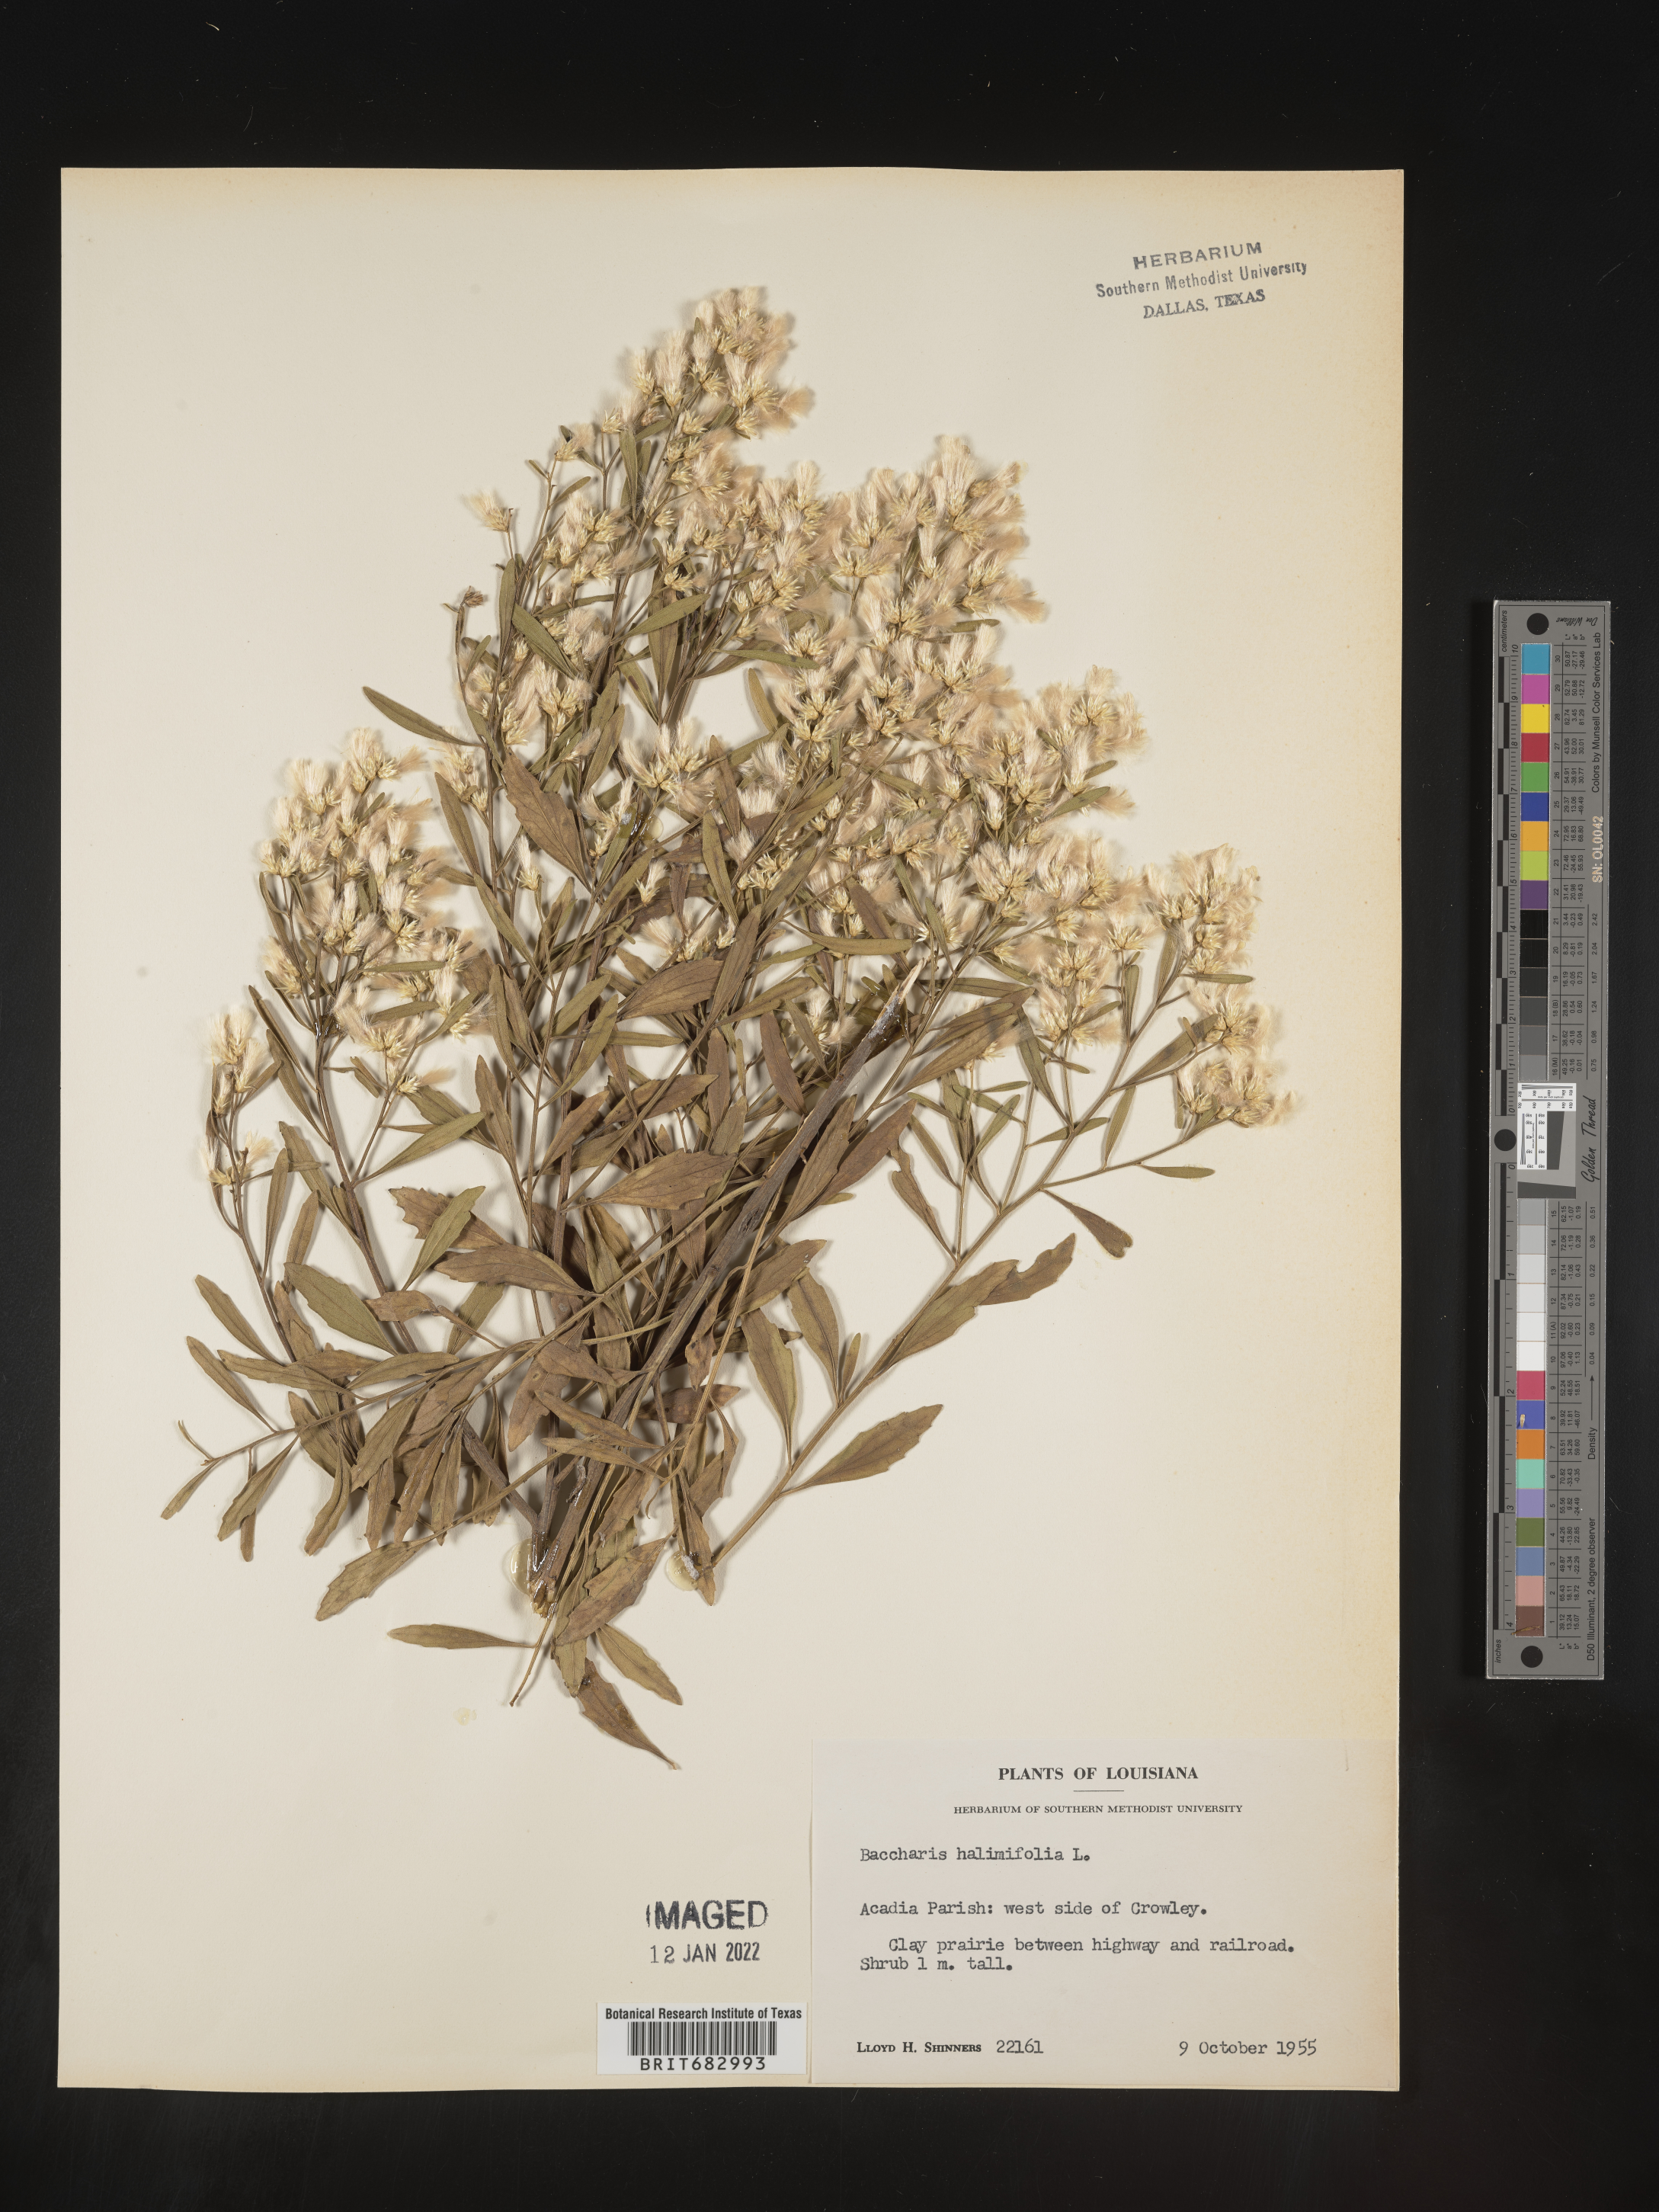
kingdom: Plantae
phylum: Tracheophyta
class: Magnoliopsida
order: Asterales
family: Asteraceae
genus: Nidorella
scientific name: Nidorella ivifolia
